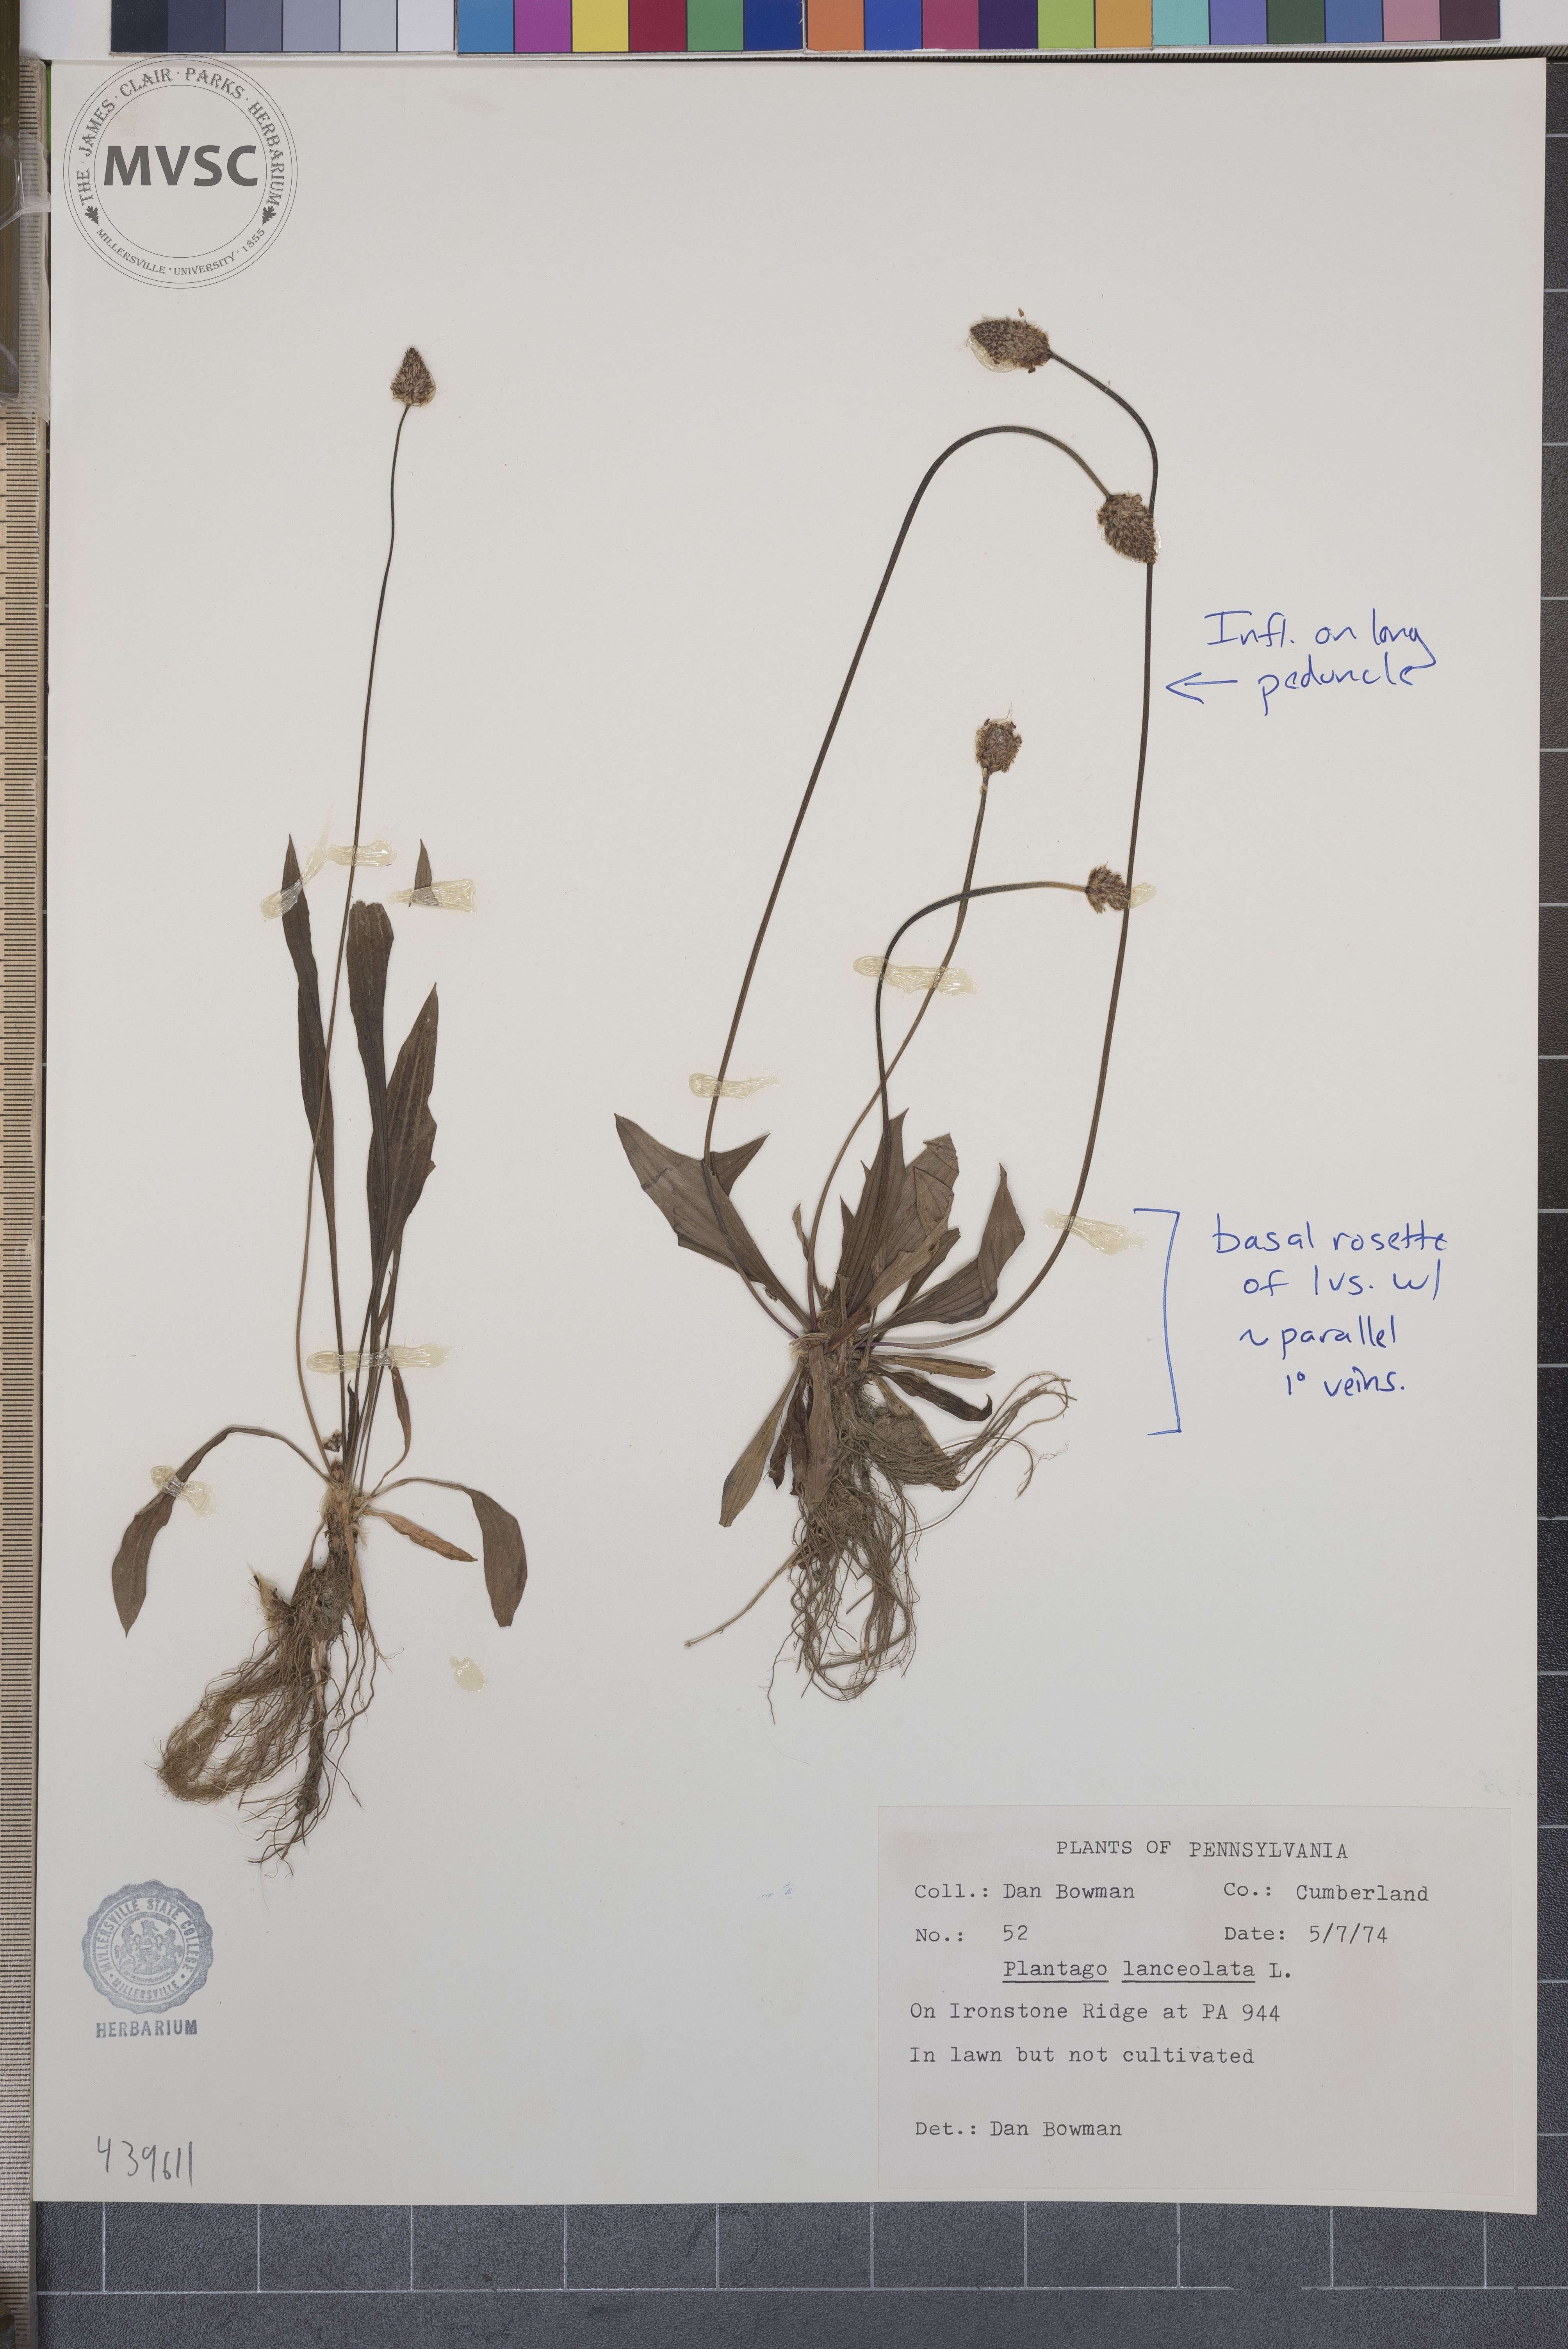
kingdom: Plantae
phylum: Tracheophyta
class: Magnoliopsida
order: Lamiales
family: Plantaginaceae
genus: Plantago
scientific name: Plantago lanceolata
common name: Ribwort plantain
